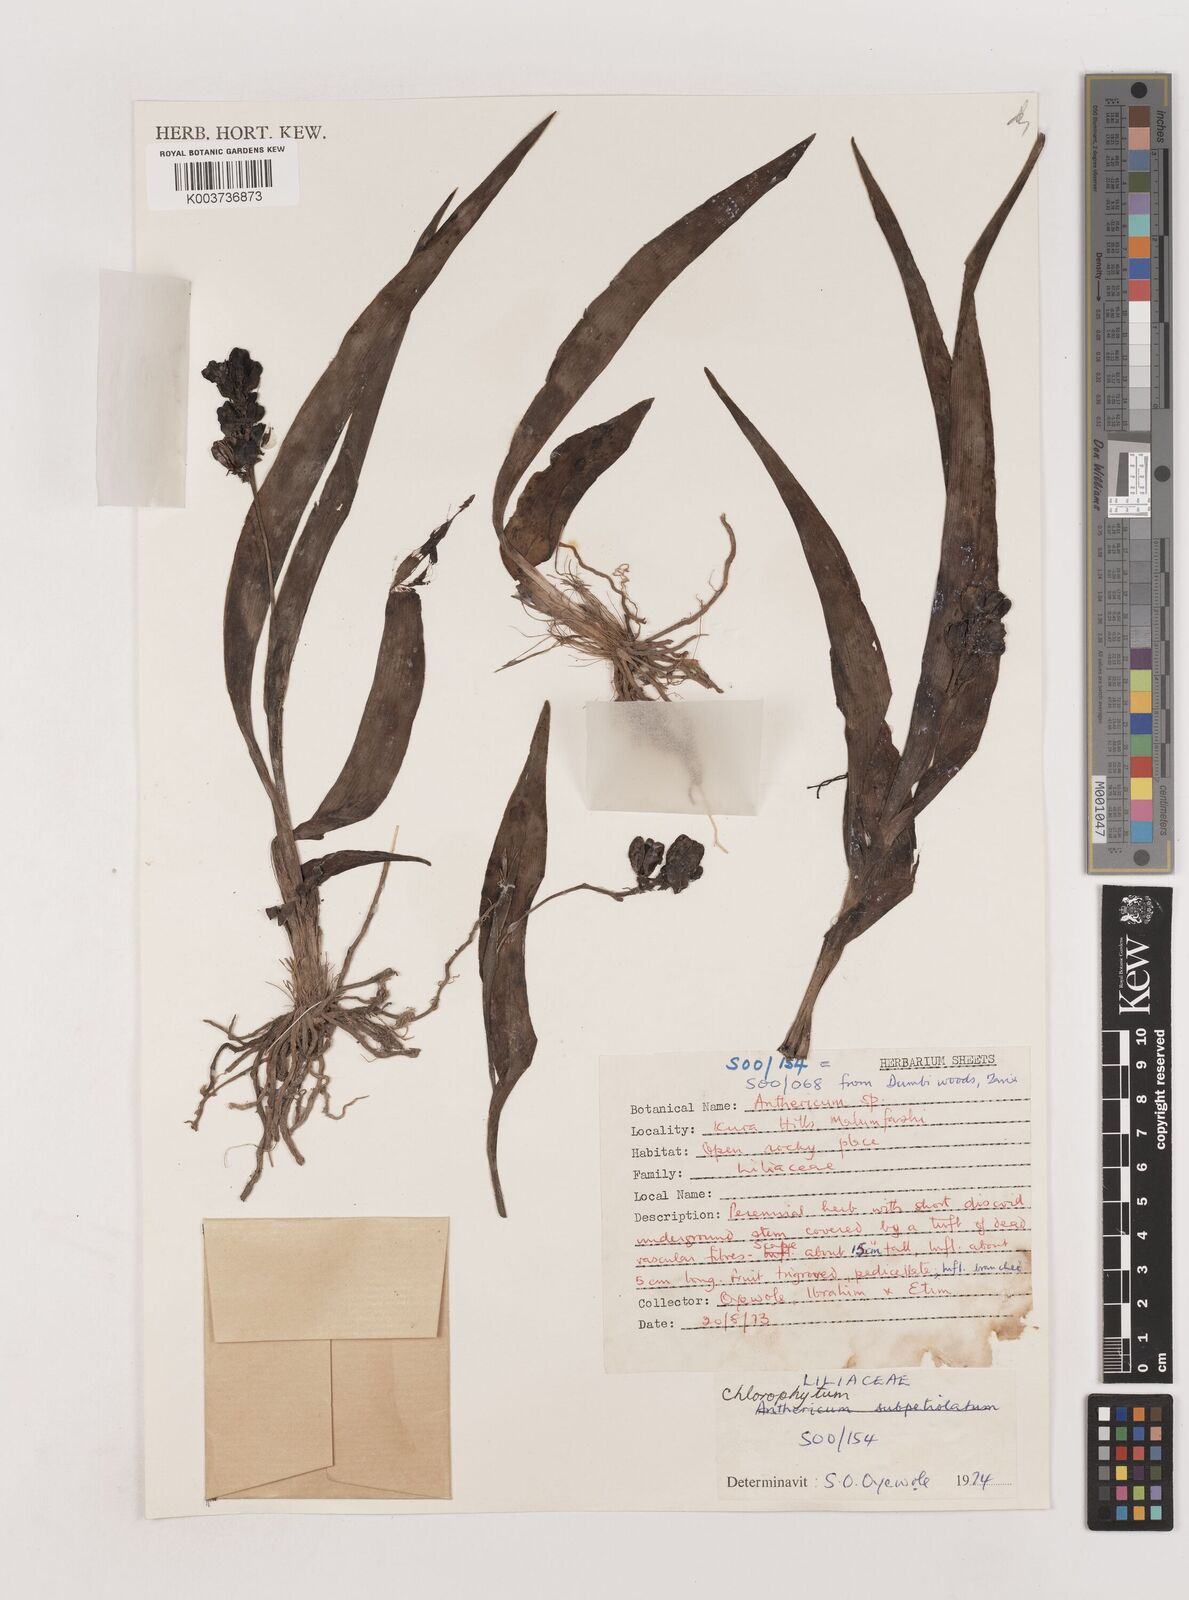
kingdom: Plantae
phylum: Tracheophyta
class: Liliopsida
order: Asparagales
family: Asparagaceae
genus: Chlorophytum
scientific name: Chlorophytum blepharophyllum
